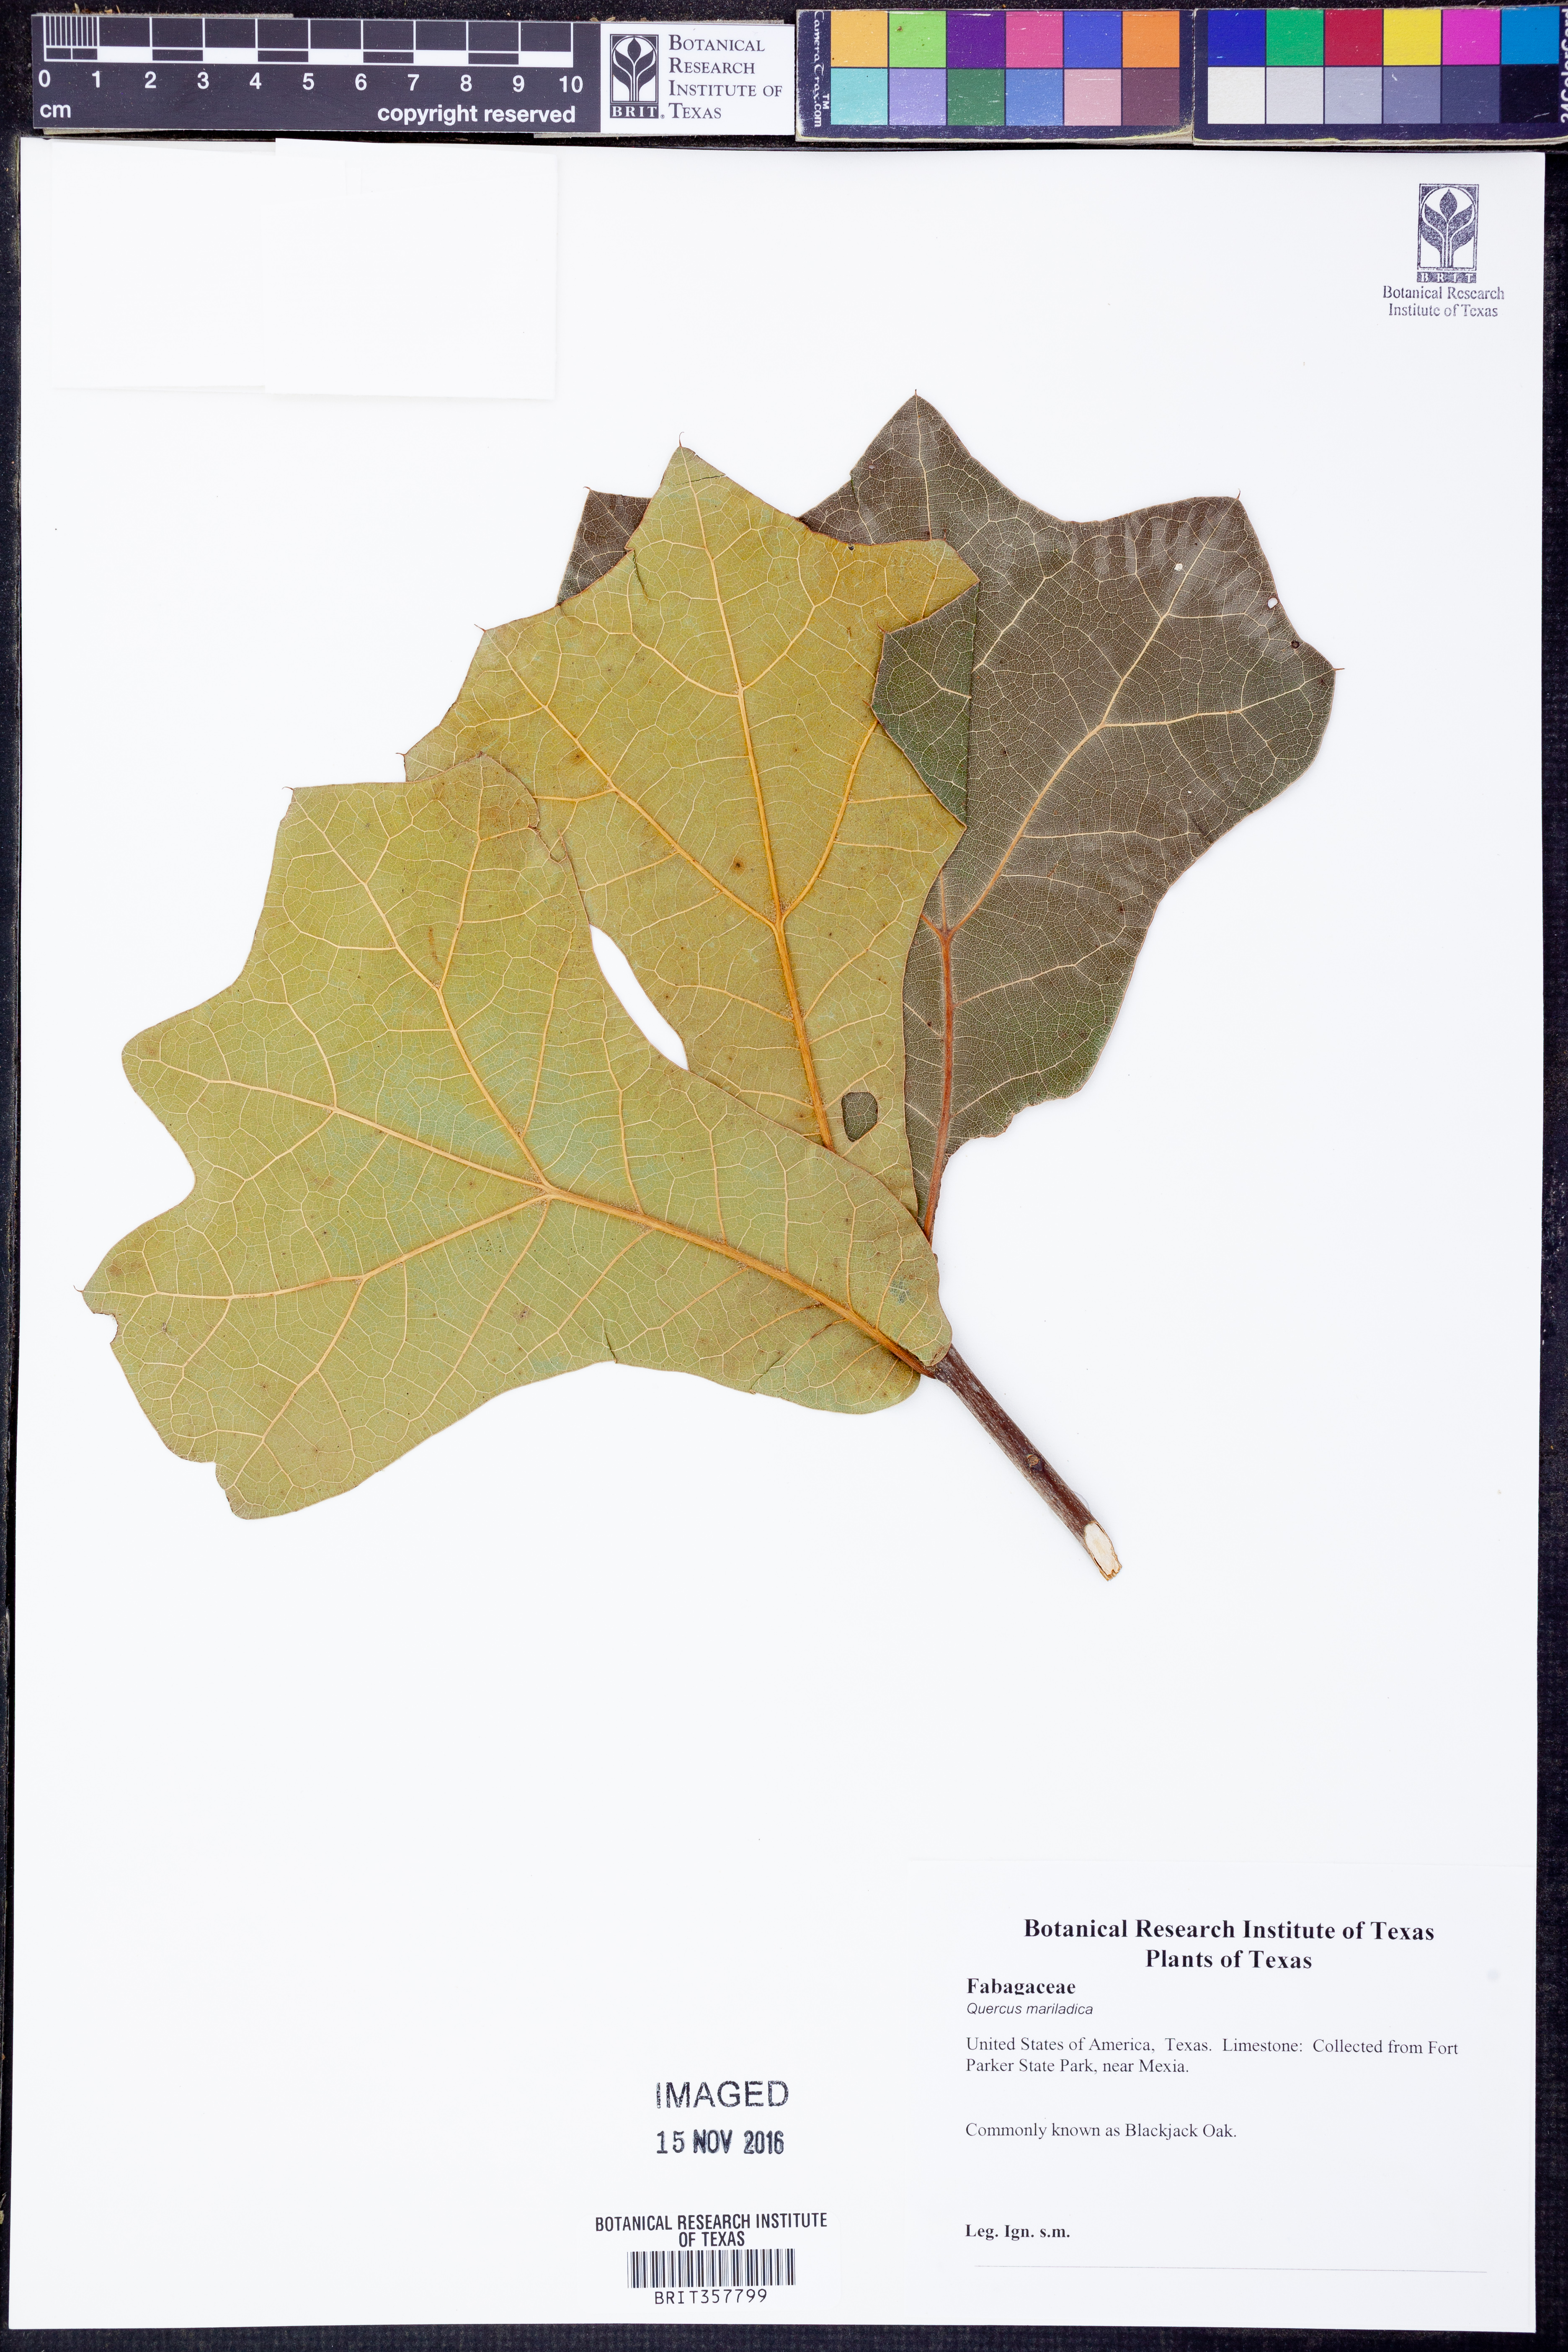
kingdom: Plantae
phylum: Tracheophyta
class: Magnoliopsida
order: Fagales
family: Fagaceae
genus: Quercus
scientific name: Quercus marilandica
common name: Blackjack oak
